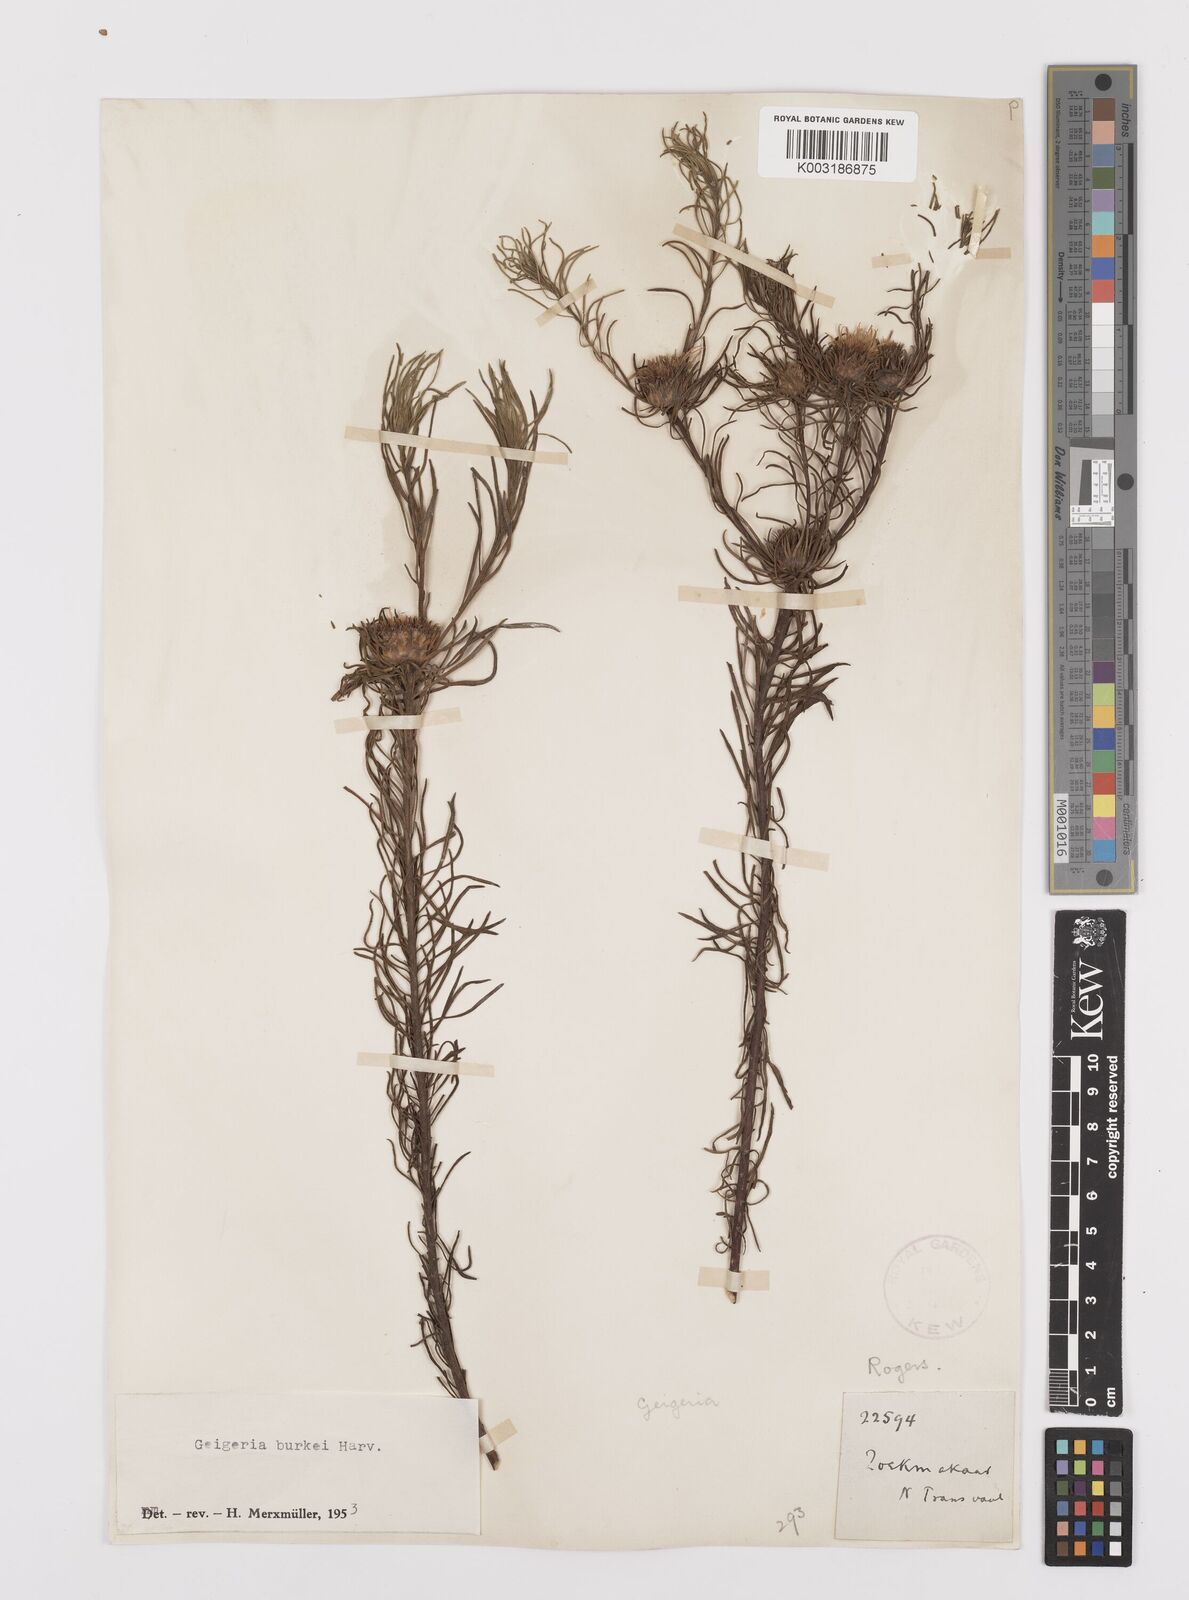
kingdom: Plantae
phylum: Tracheophyta
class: Magnoliopsida
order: Asterales
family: Asteraceae
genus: Geigeria
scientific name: Geigeria burkei
